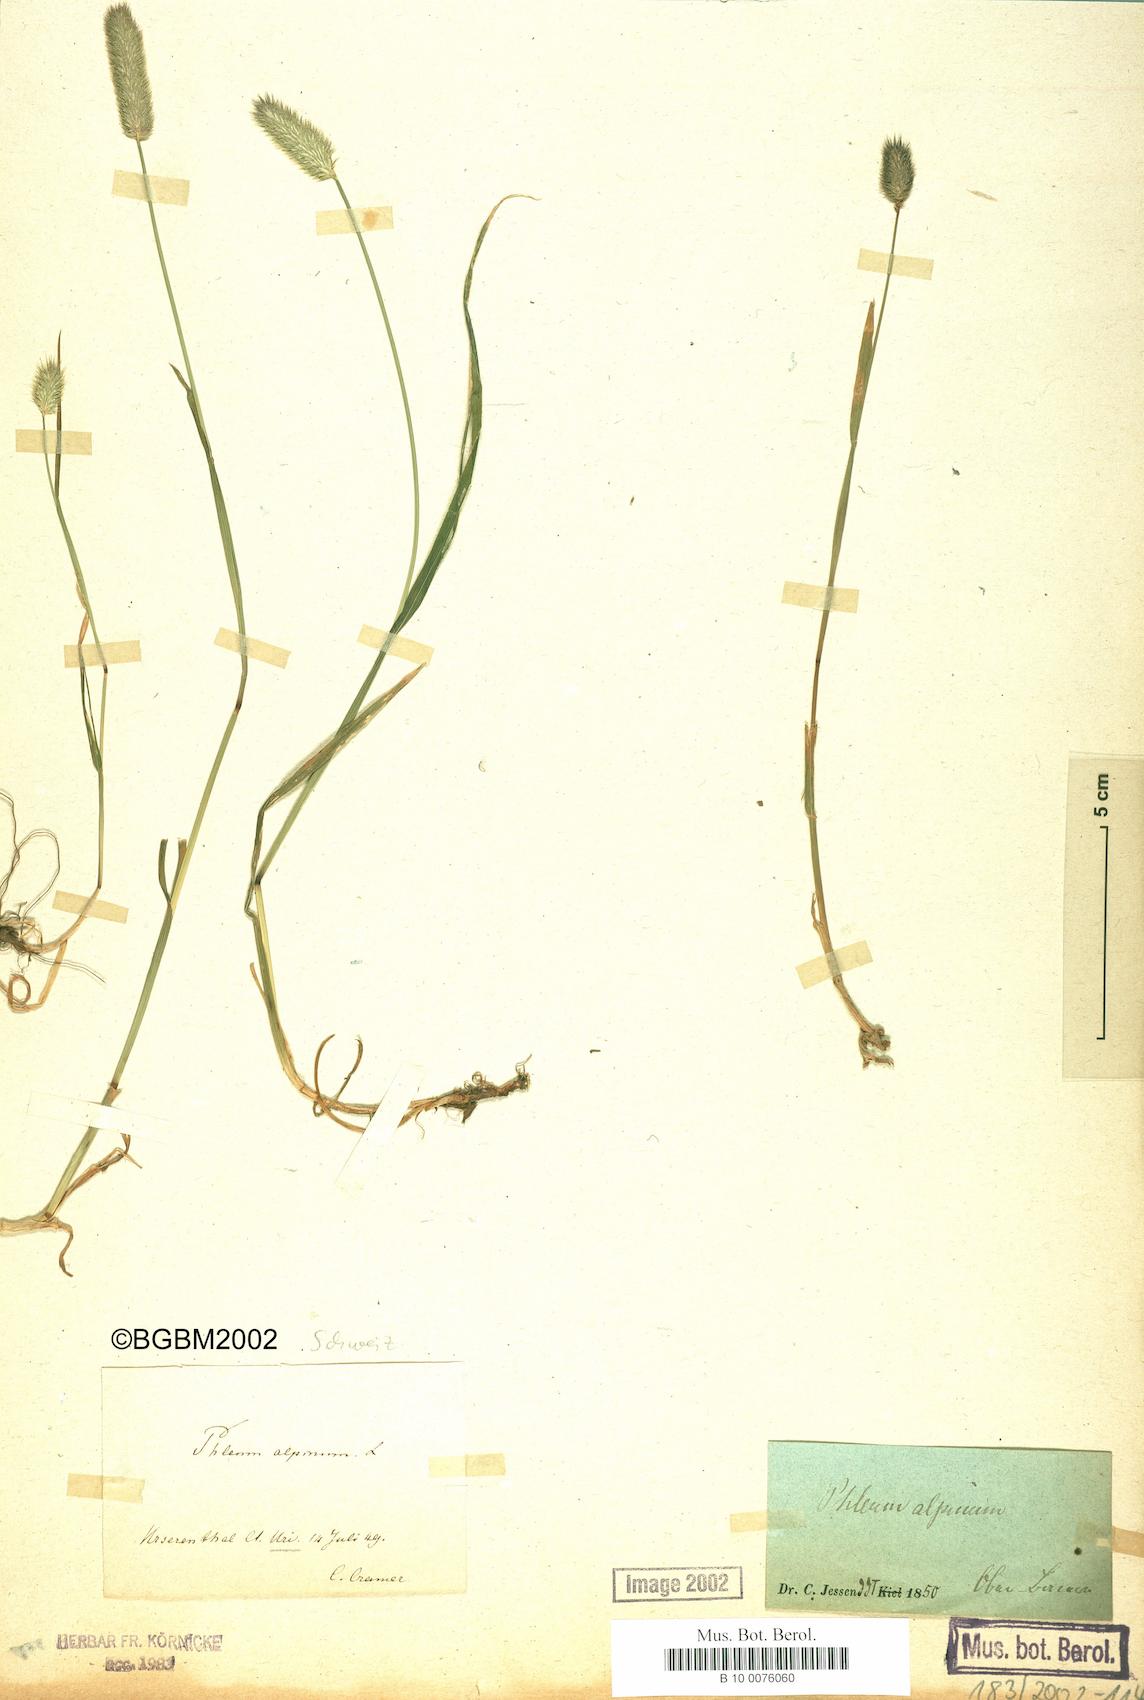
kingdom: Plantae
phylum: Tracheophyta
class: Liliopsida
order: Poales
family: Poaceae
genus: Phleum
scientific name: Phleum alpinum
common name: Alpine cat's-tail
